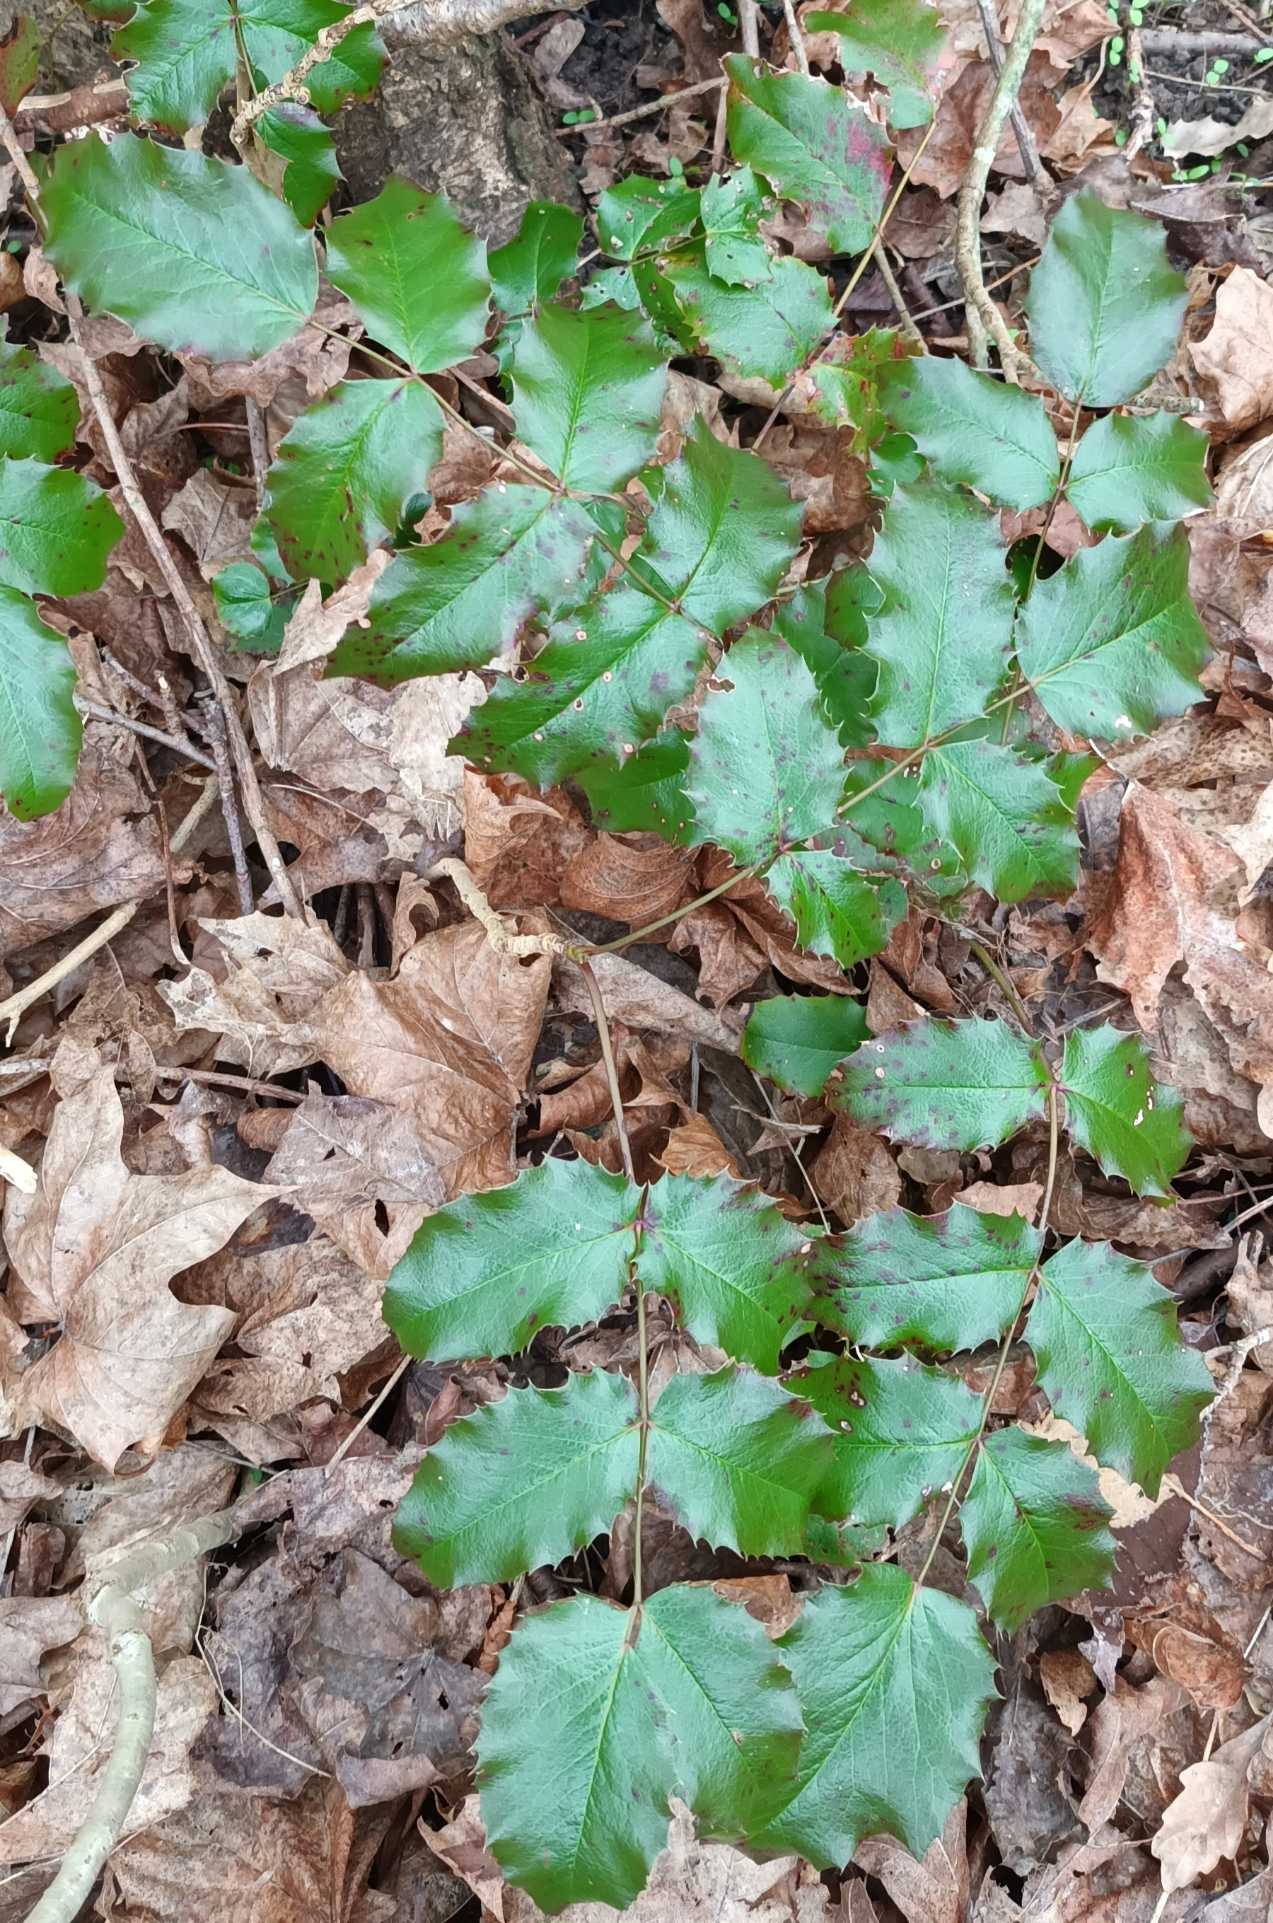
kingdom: Plantae
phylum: Tracheophyta
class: Magnoliopsida
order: Ranunculales
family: Berberidaceae
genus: Mahonia
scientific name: Mahonia aquifolium
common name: Almindelig mahonie
